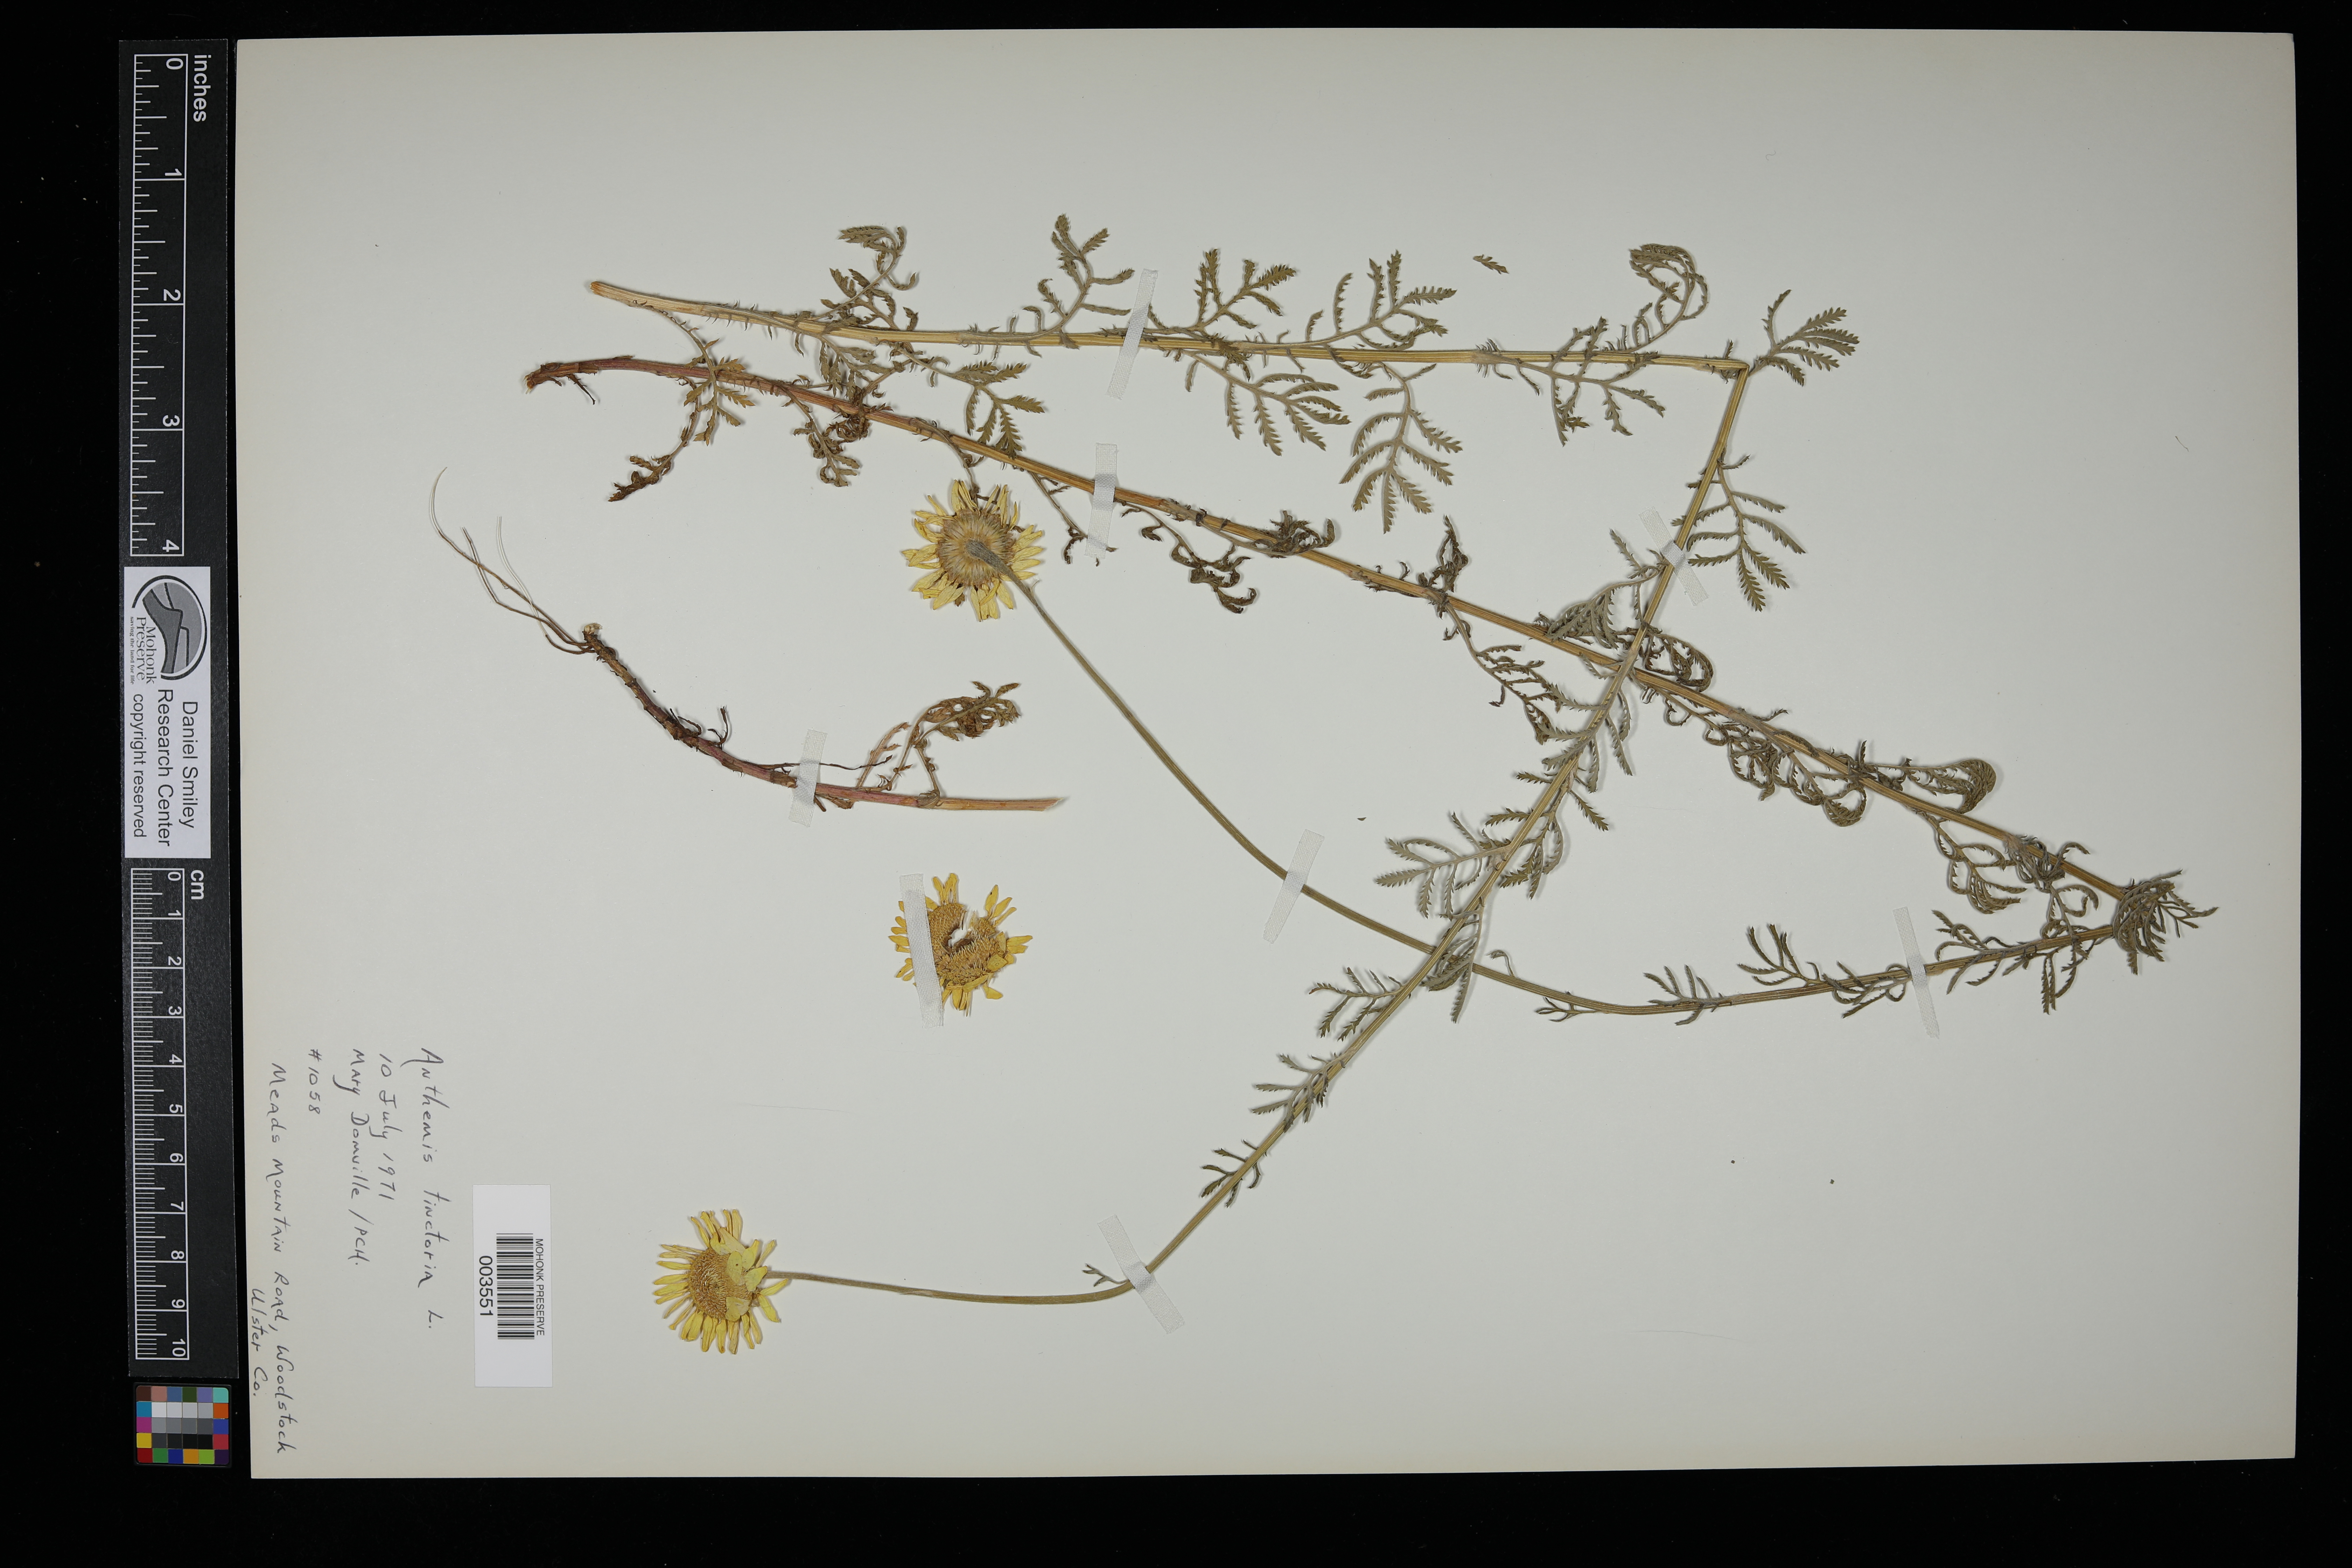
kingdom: Plantae
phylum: Tracheophyta
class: Magnoliopsida
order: Asterales
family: Asteraceae
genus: Cota
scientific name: Cota tinctoria
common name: Golden chamomile
